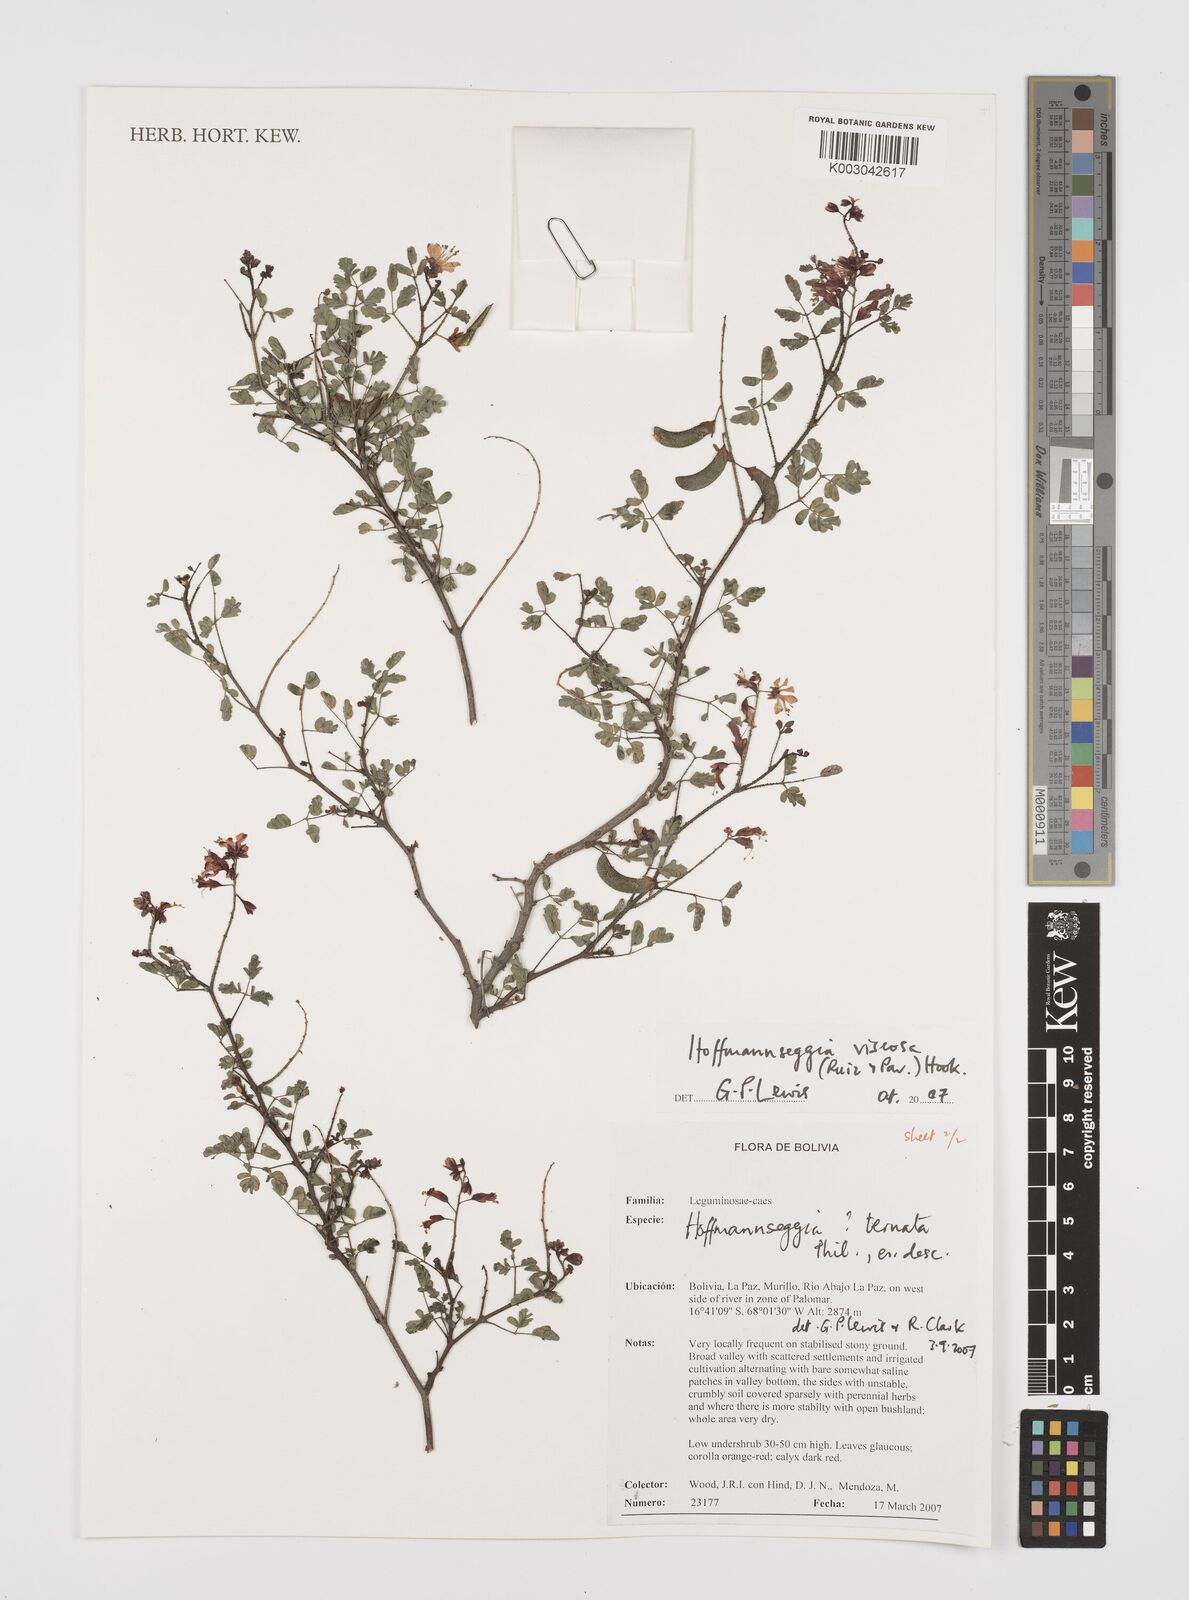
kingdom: Plantae
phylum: Tracheophyta
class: Magnoliopsida
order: Fabales
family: Fabaceae
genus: Hoffmannseggia
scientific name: Hoffmannseggia viscosa
